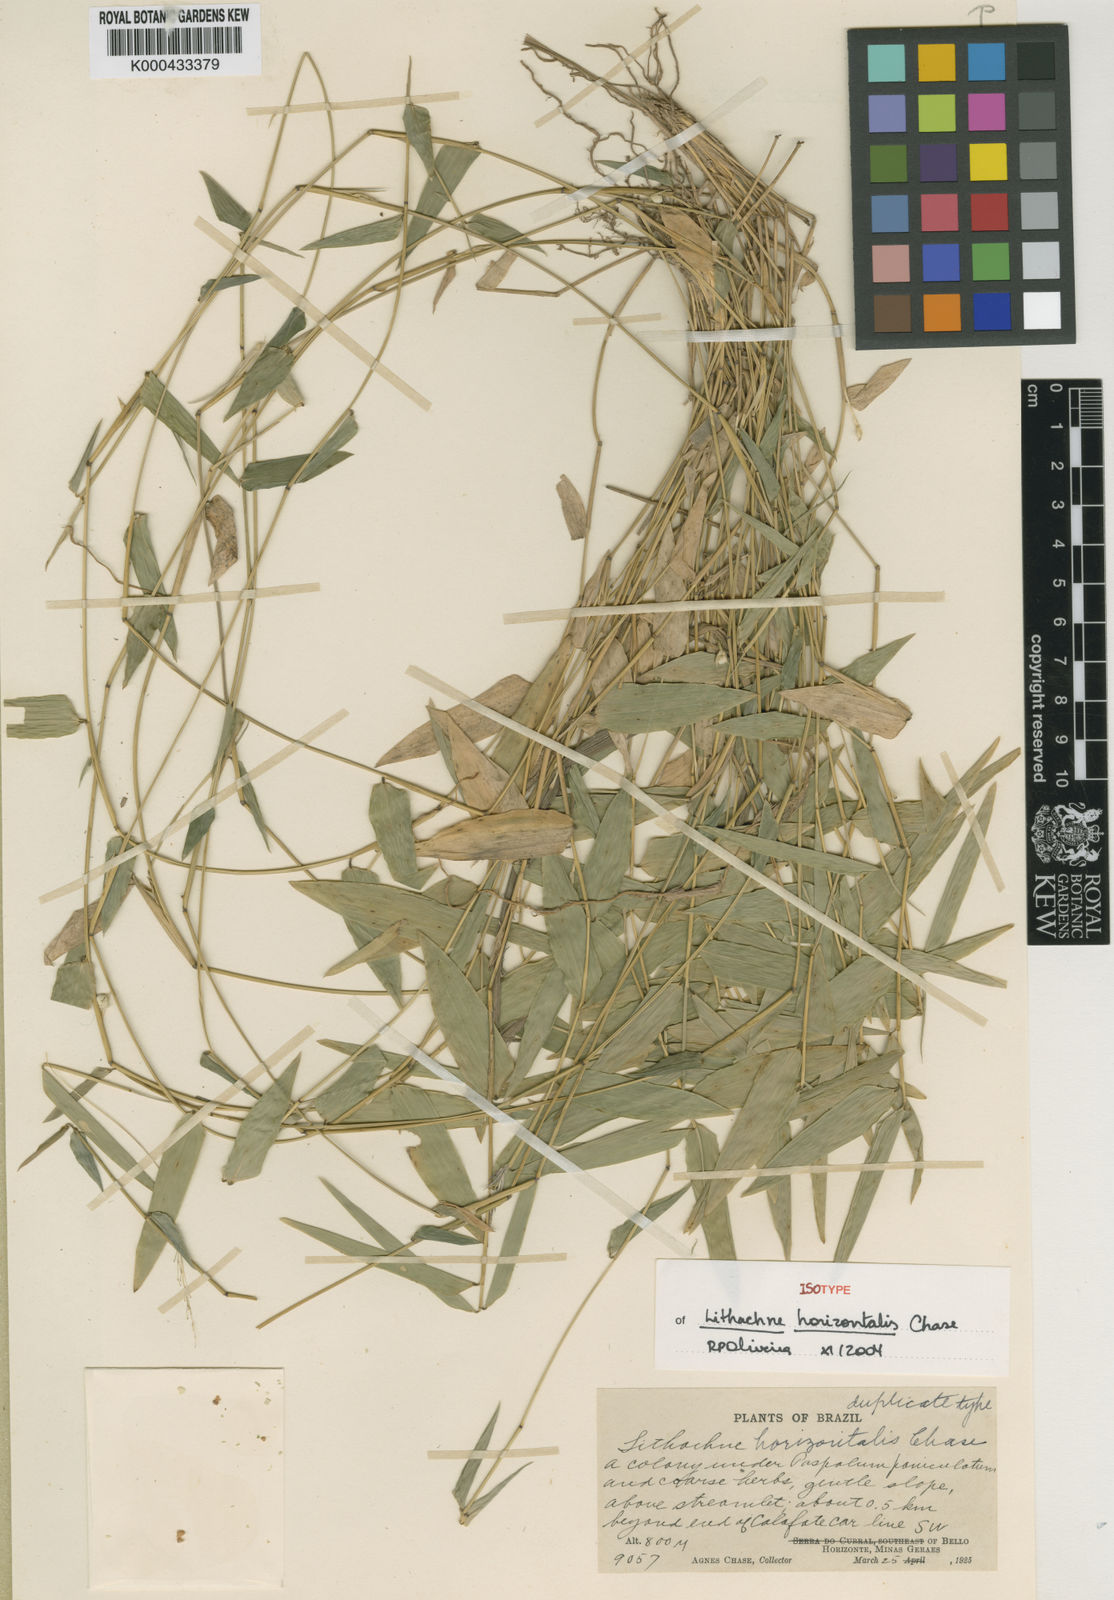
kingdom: Plantae
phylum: Tracheophyta
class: Liliopsida
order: Poales
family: Poaceae
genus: Lithachne
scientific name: Lithachne horizontalis
